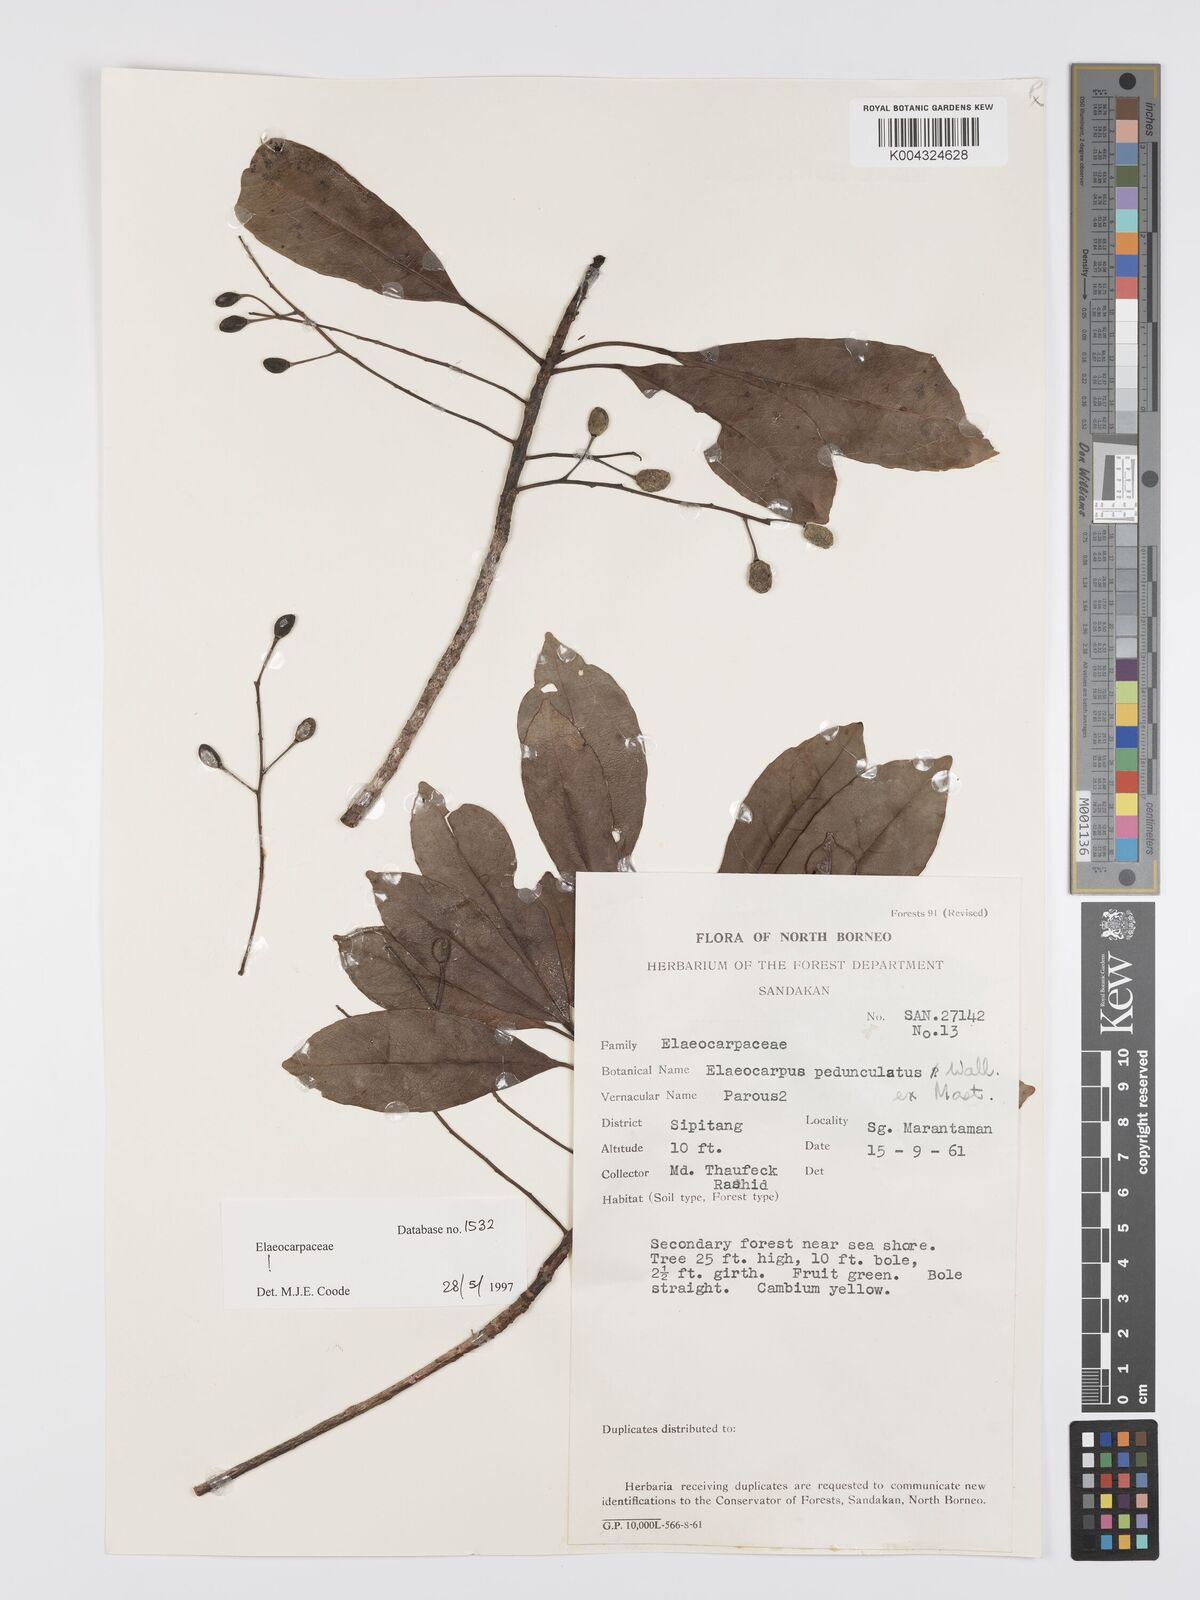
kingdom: Plantae
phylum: Tracheophyta
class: Magnoliopsida
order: Oxalidales
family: Elaeocarpaceae
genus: Elaeocarpus
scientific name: Elaeocarpus pedunculatus
